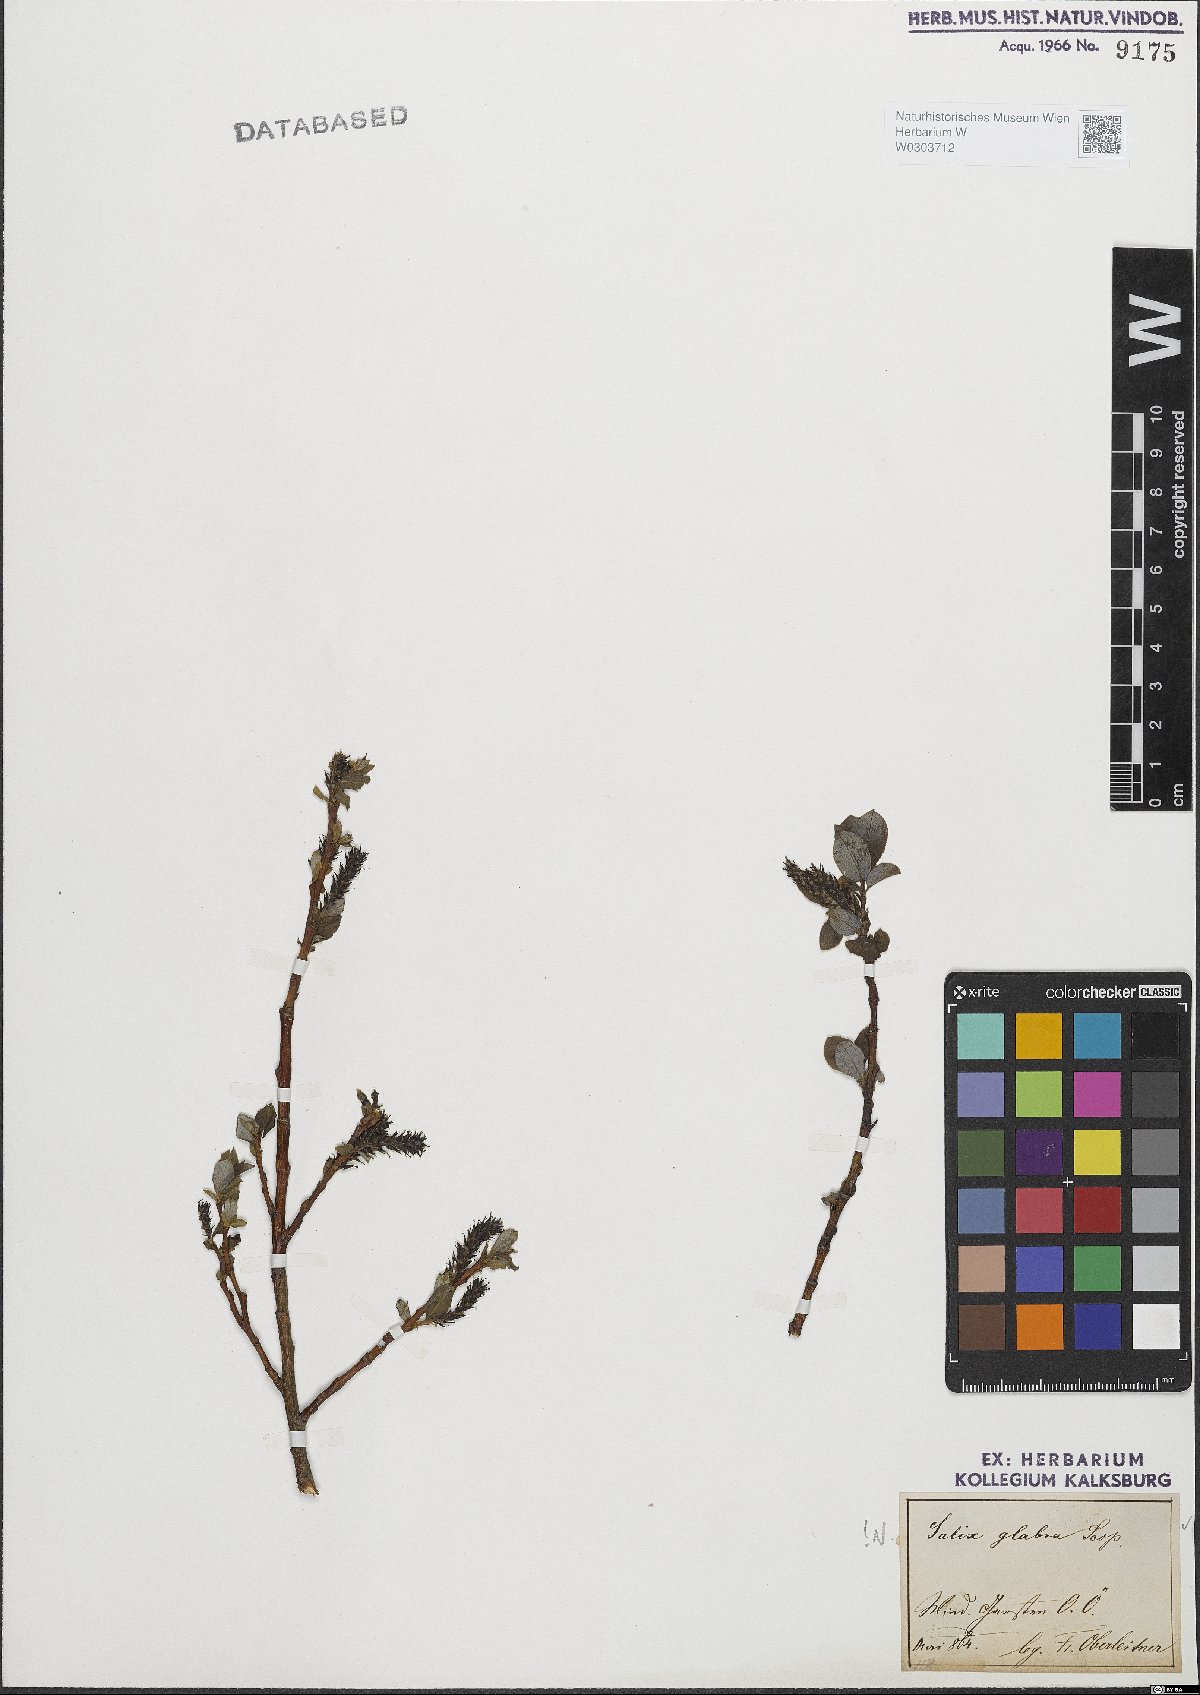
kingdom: Plantae
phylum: Tracheophyta
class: Magnoliopsida
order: Malpighiales
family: Salicaceae
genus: Salix
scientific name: Salix glabra
